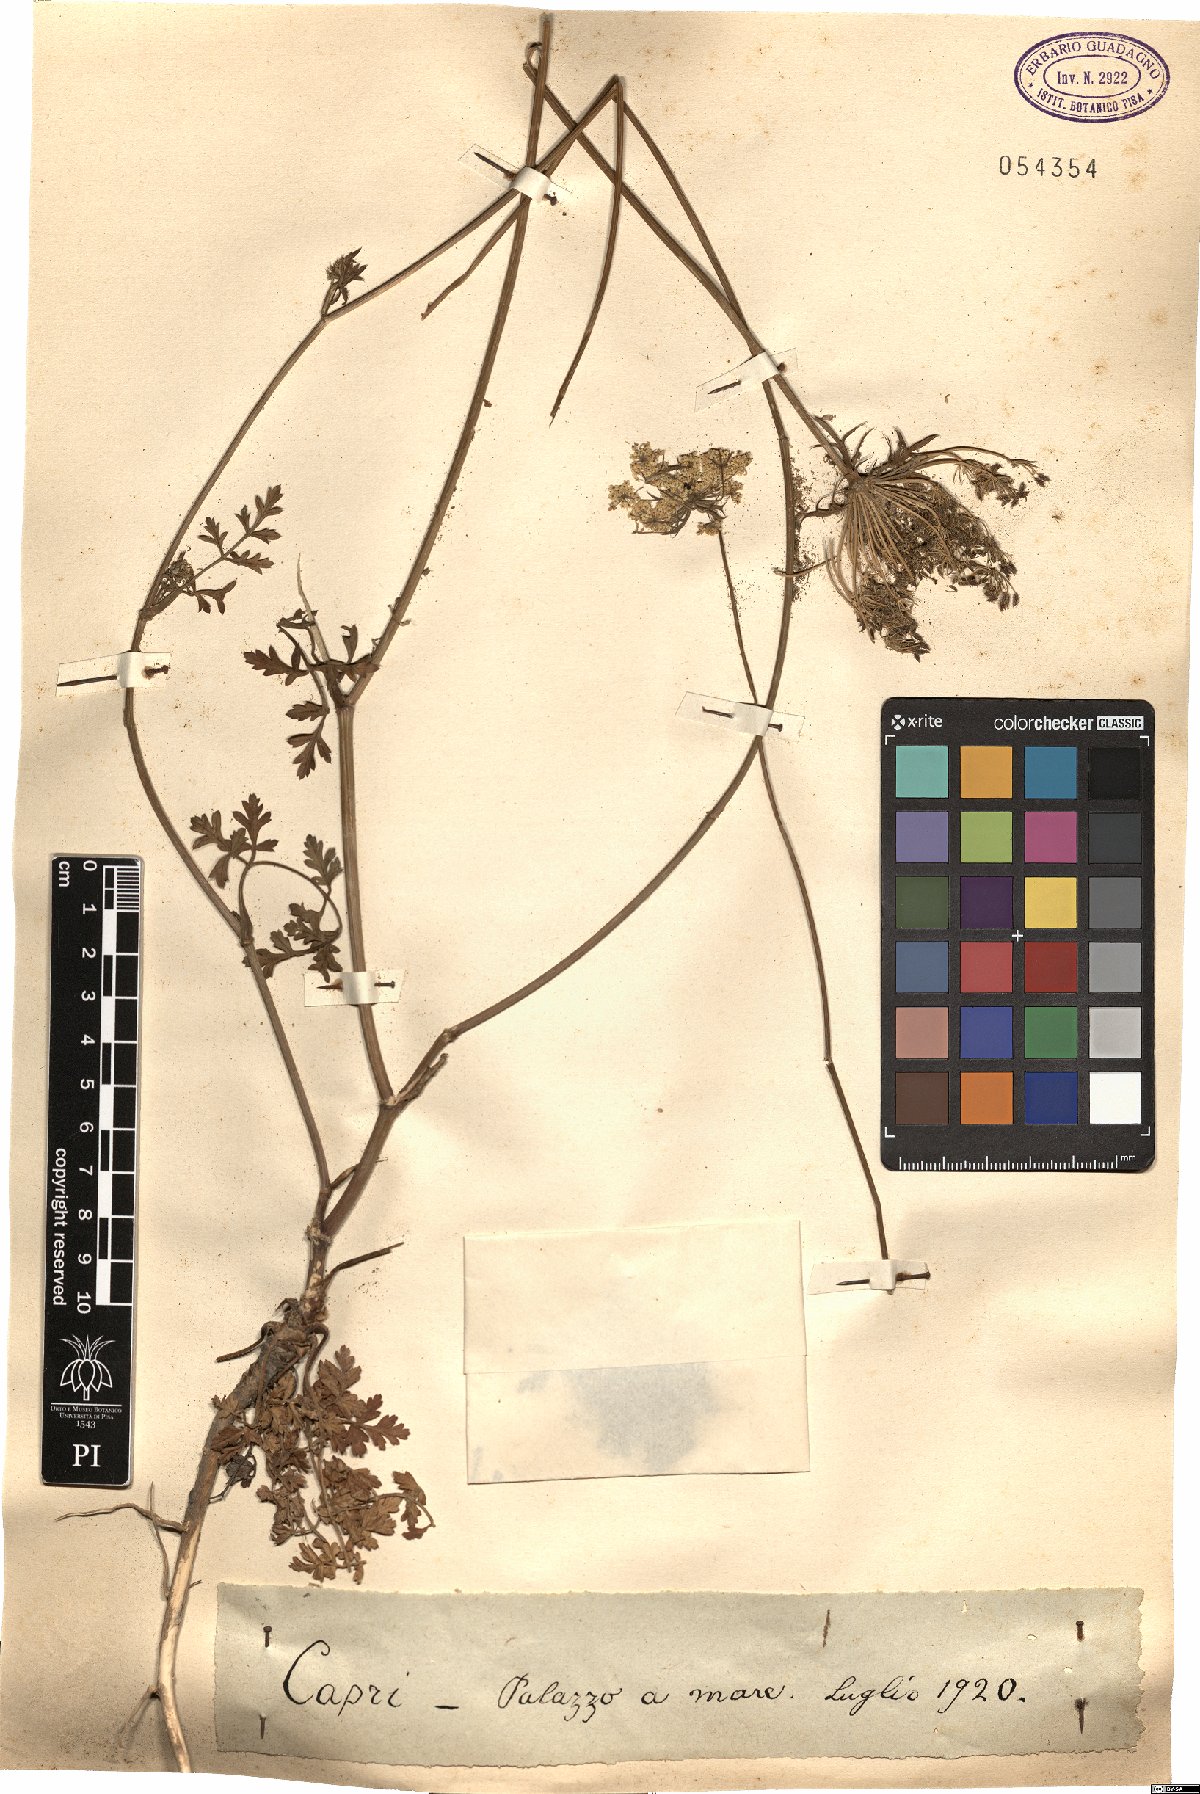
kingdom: Plantae
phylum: Tracheophyta
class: Magnoliopsida
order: Apiales
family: Apiaceae
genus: Daucus
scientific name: Daucus
